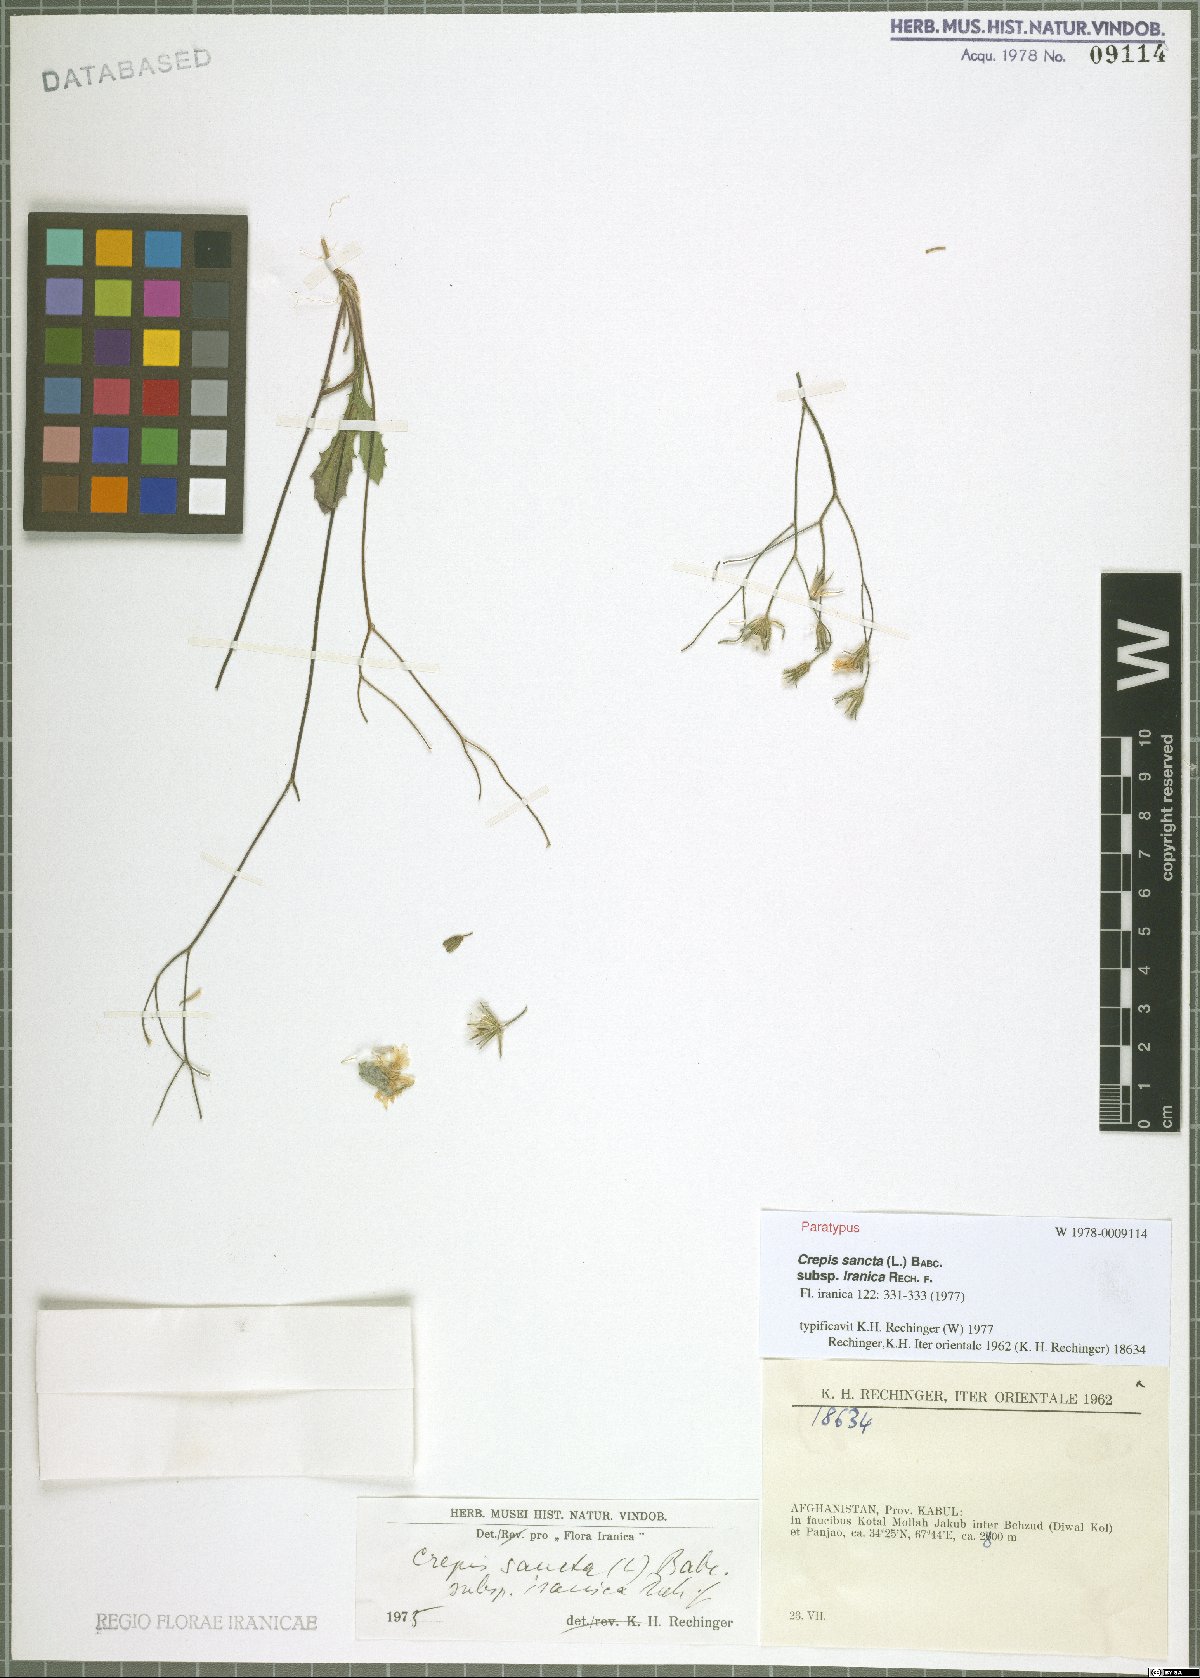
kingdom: Plantae
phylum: Tracheophyta
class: Magnoliopsida
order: Asterales
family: Asteraceae
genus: Crepis
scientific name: Crepis sancta
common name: Hawk's-beard
